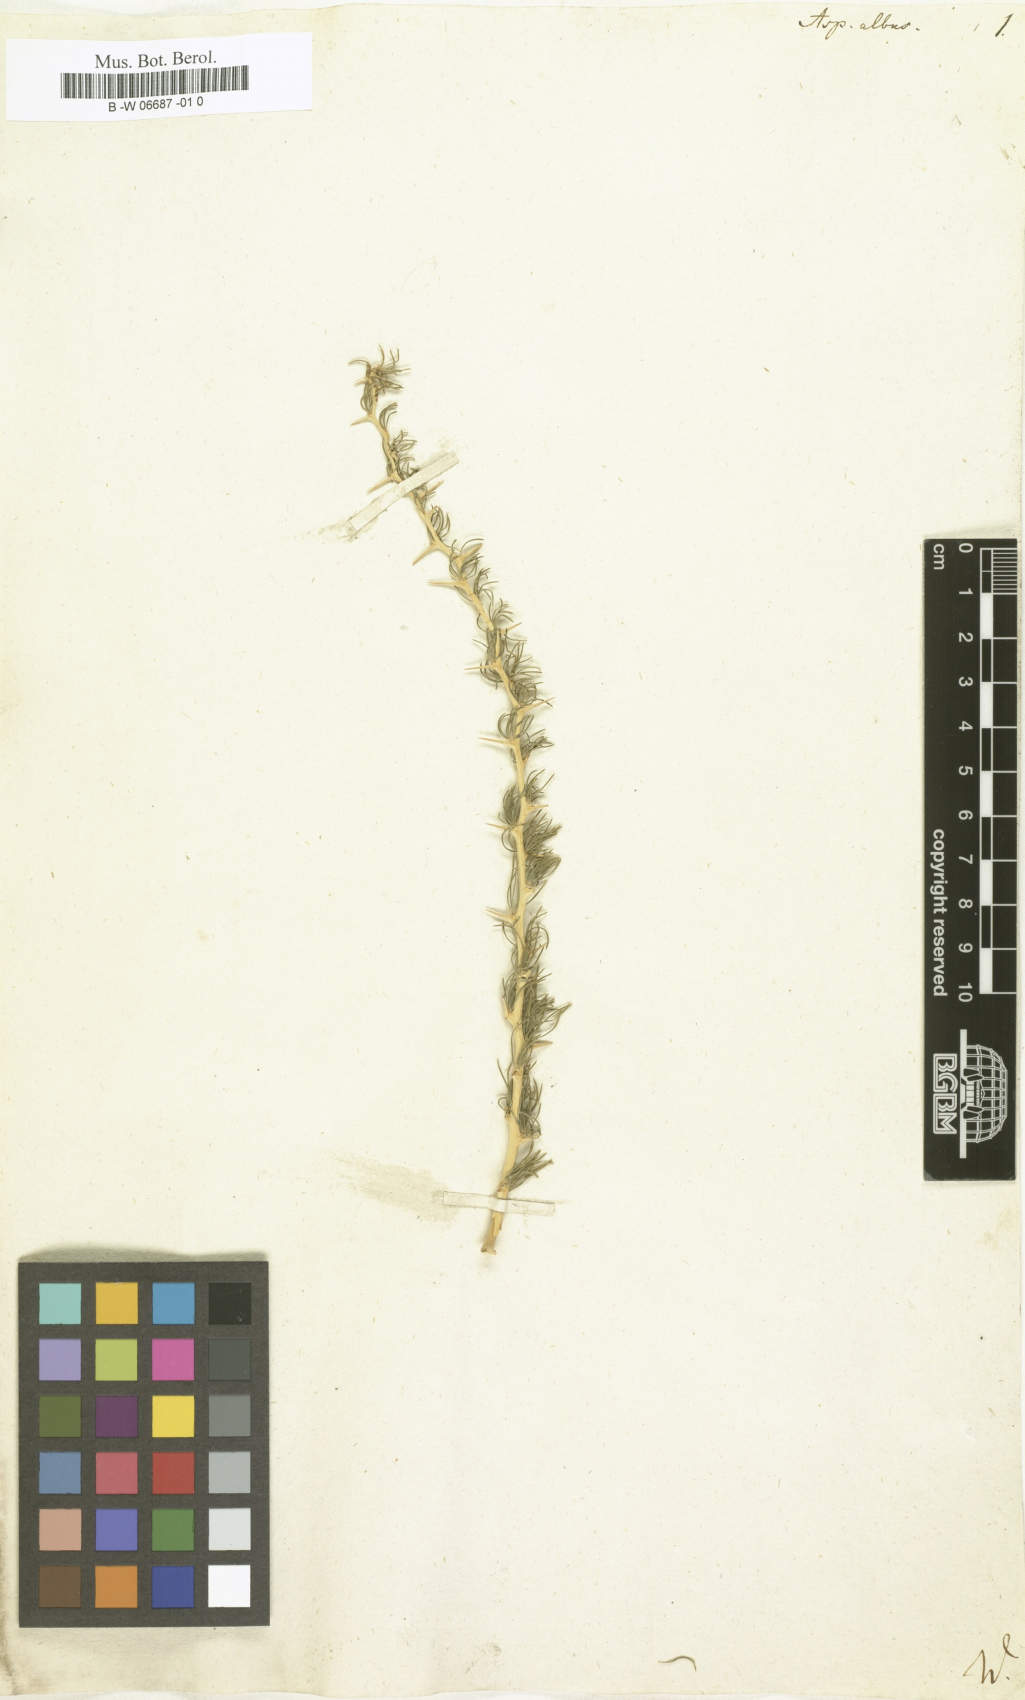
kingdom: Plantae
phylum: Tracheophyta
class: Liliopsida
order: Asparagales
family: Asparagaceae
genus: Asparagus
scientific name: Asparagus albus
